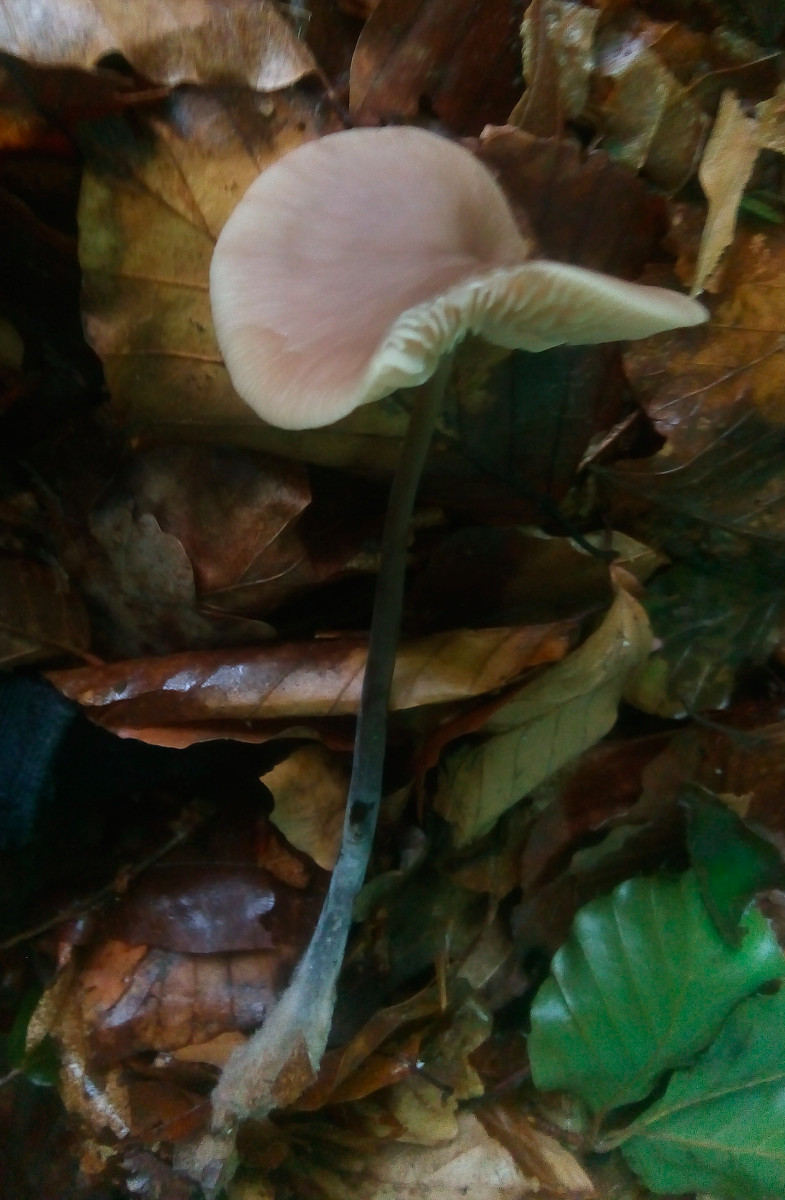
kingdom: Fungi
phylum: Basidiomycota
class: Agaricomycetes
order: Agaricales
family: Omphalotaceae
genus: Mycetinis
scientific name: Mycetinis alliaceus
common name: stor løghat
